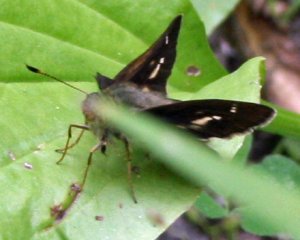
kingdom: Animalia
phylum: Arthropoda
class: Insecta
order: Lepidoptera
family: Hesperiidae
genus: Vernia
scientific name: Vernia verna
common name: Little Glassywing
